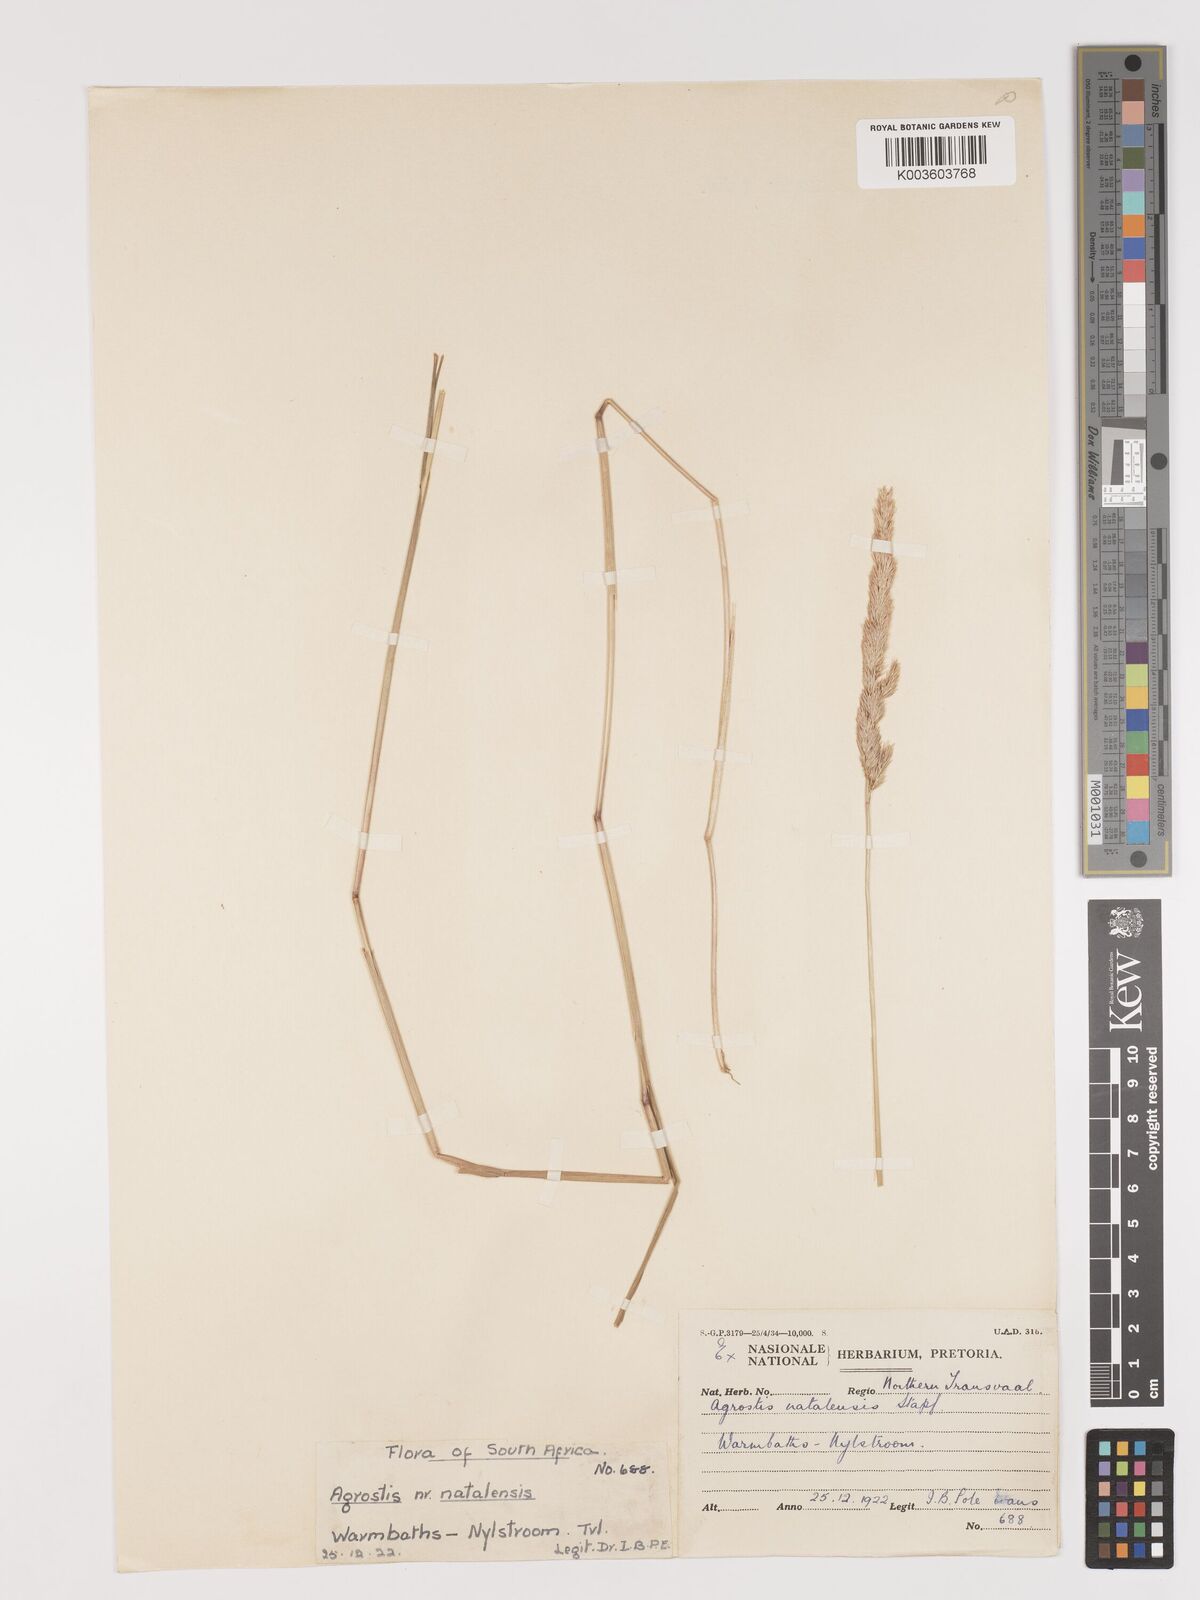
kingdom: Plantae
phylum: Tracheophyta
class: Liliopsida
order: Poales
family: Poaceae
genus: Agrostis
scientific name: Agrostis continuata
